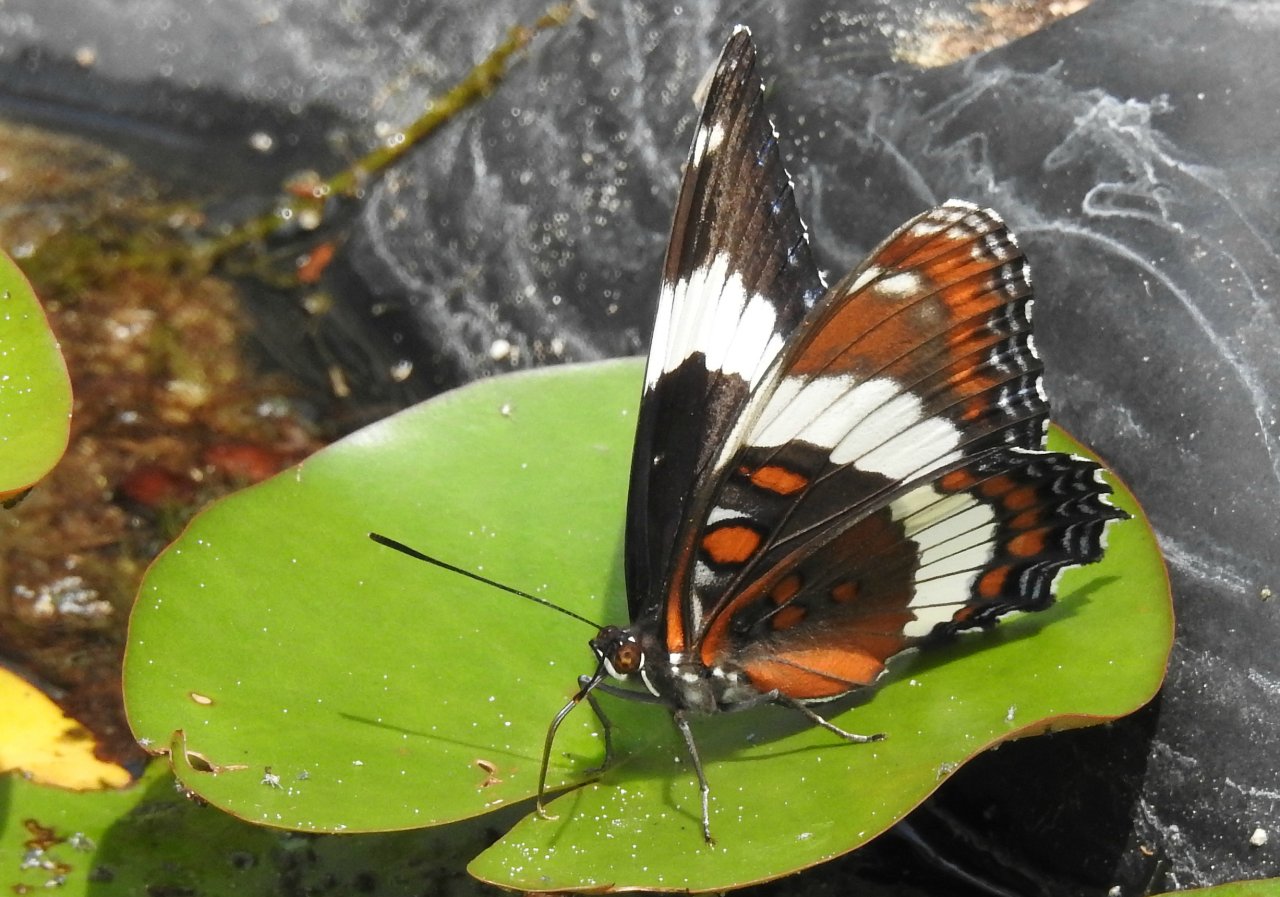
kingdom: Animalia
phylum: Arthropoda
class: Insecta
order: Lepidoptera
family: Nymphalidae
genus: Limenitis
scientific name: Limenitis arthemis
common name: Red-spotted Admiral
